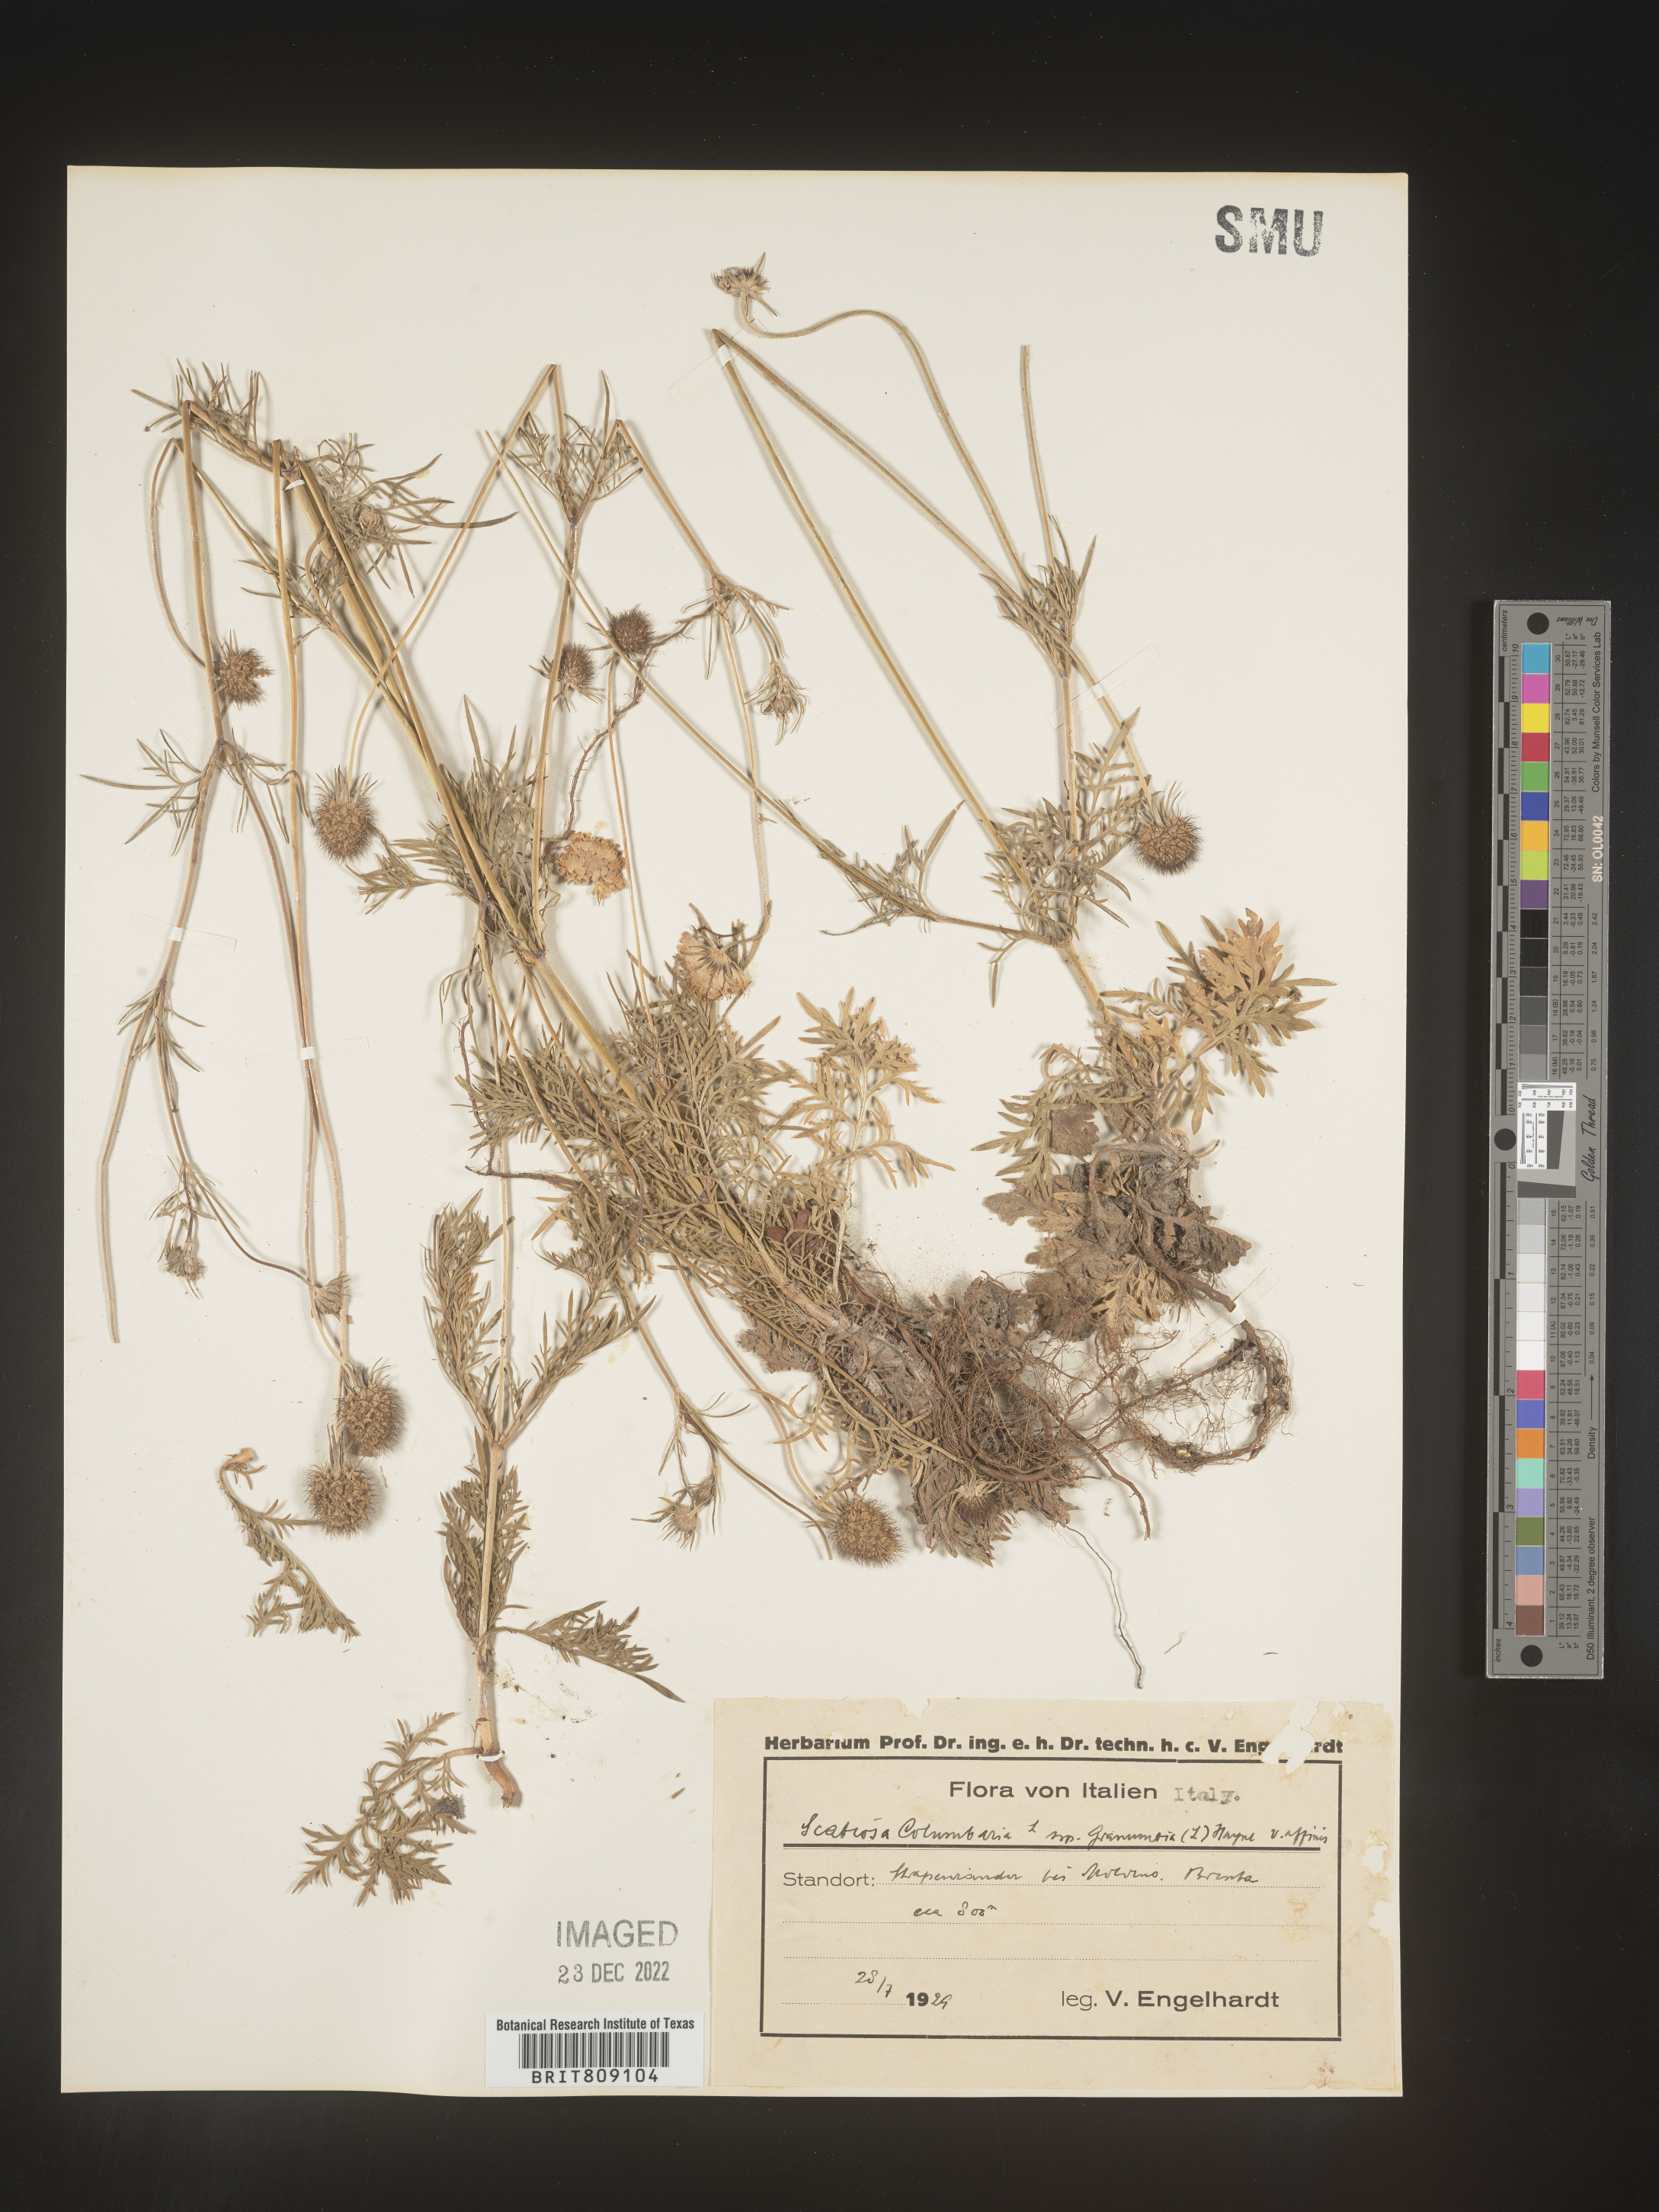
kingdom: Plantae
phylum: Tracheophyta
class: Magnoliopsida
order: Dipsacales
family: Caprifoliaceae
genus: Scabiosa
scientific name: Scabiosa
